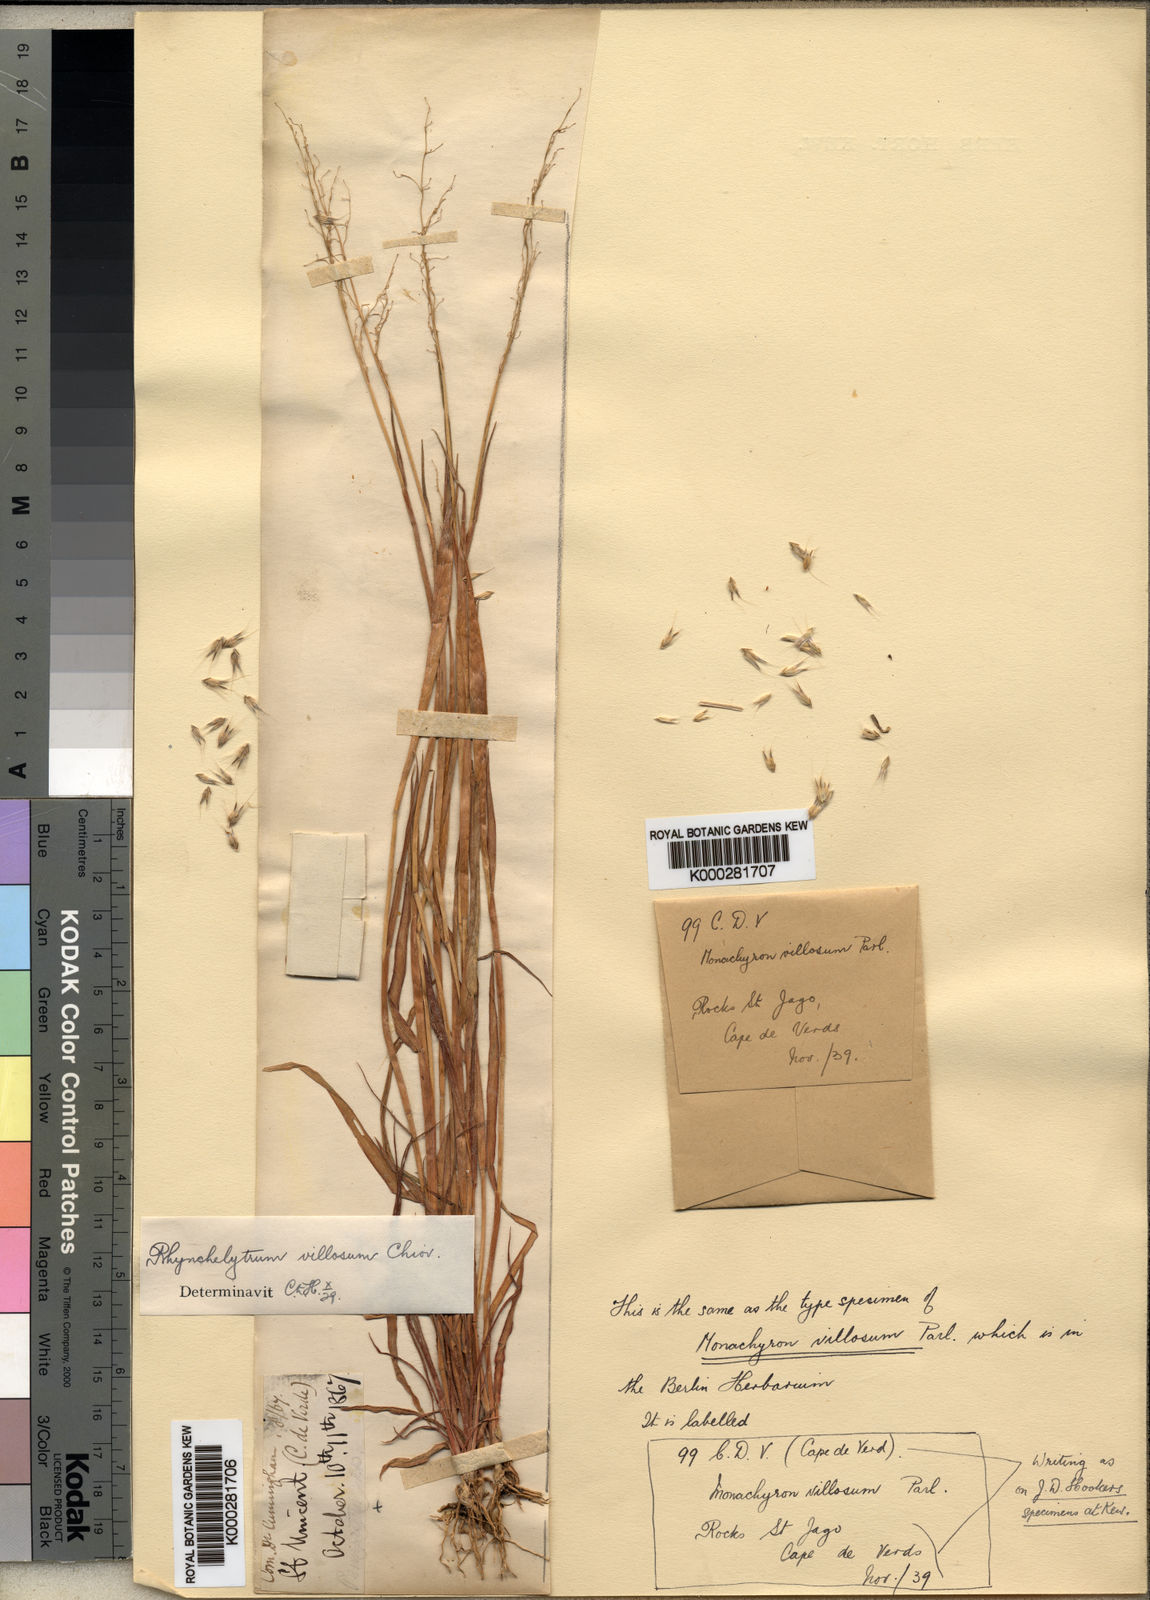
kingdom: Plantae
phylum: Tracheophyta
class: Liliopsida
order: Poales
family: Poaceae
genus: Melinis
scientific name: Melinis repens
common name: Rose natal grass
